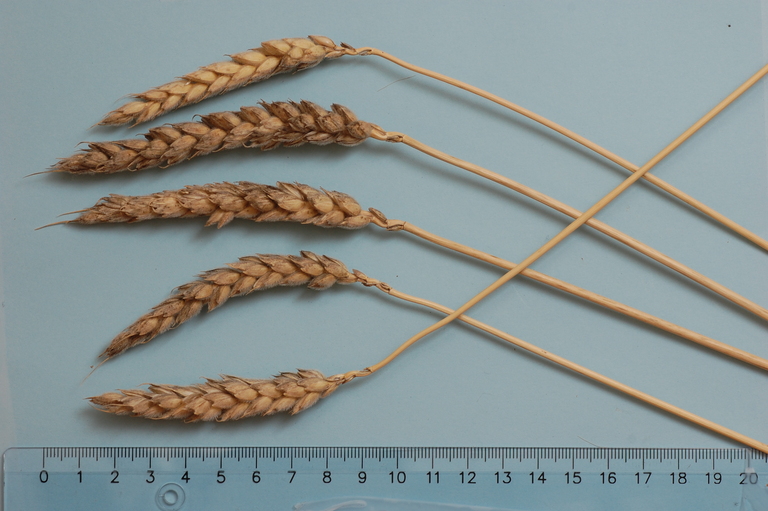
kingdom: Plantae
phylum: Tracheophyta
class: Liliopsida
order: Poales
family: Poaceae
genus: Triticum
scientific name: Triticum aestivum
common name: Common wheat
